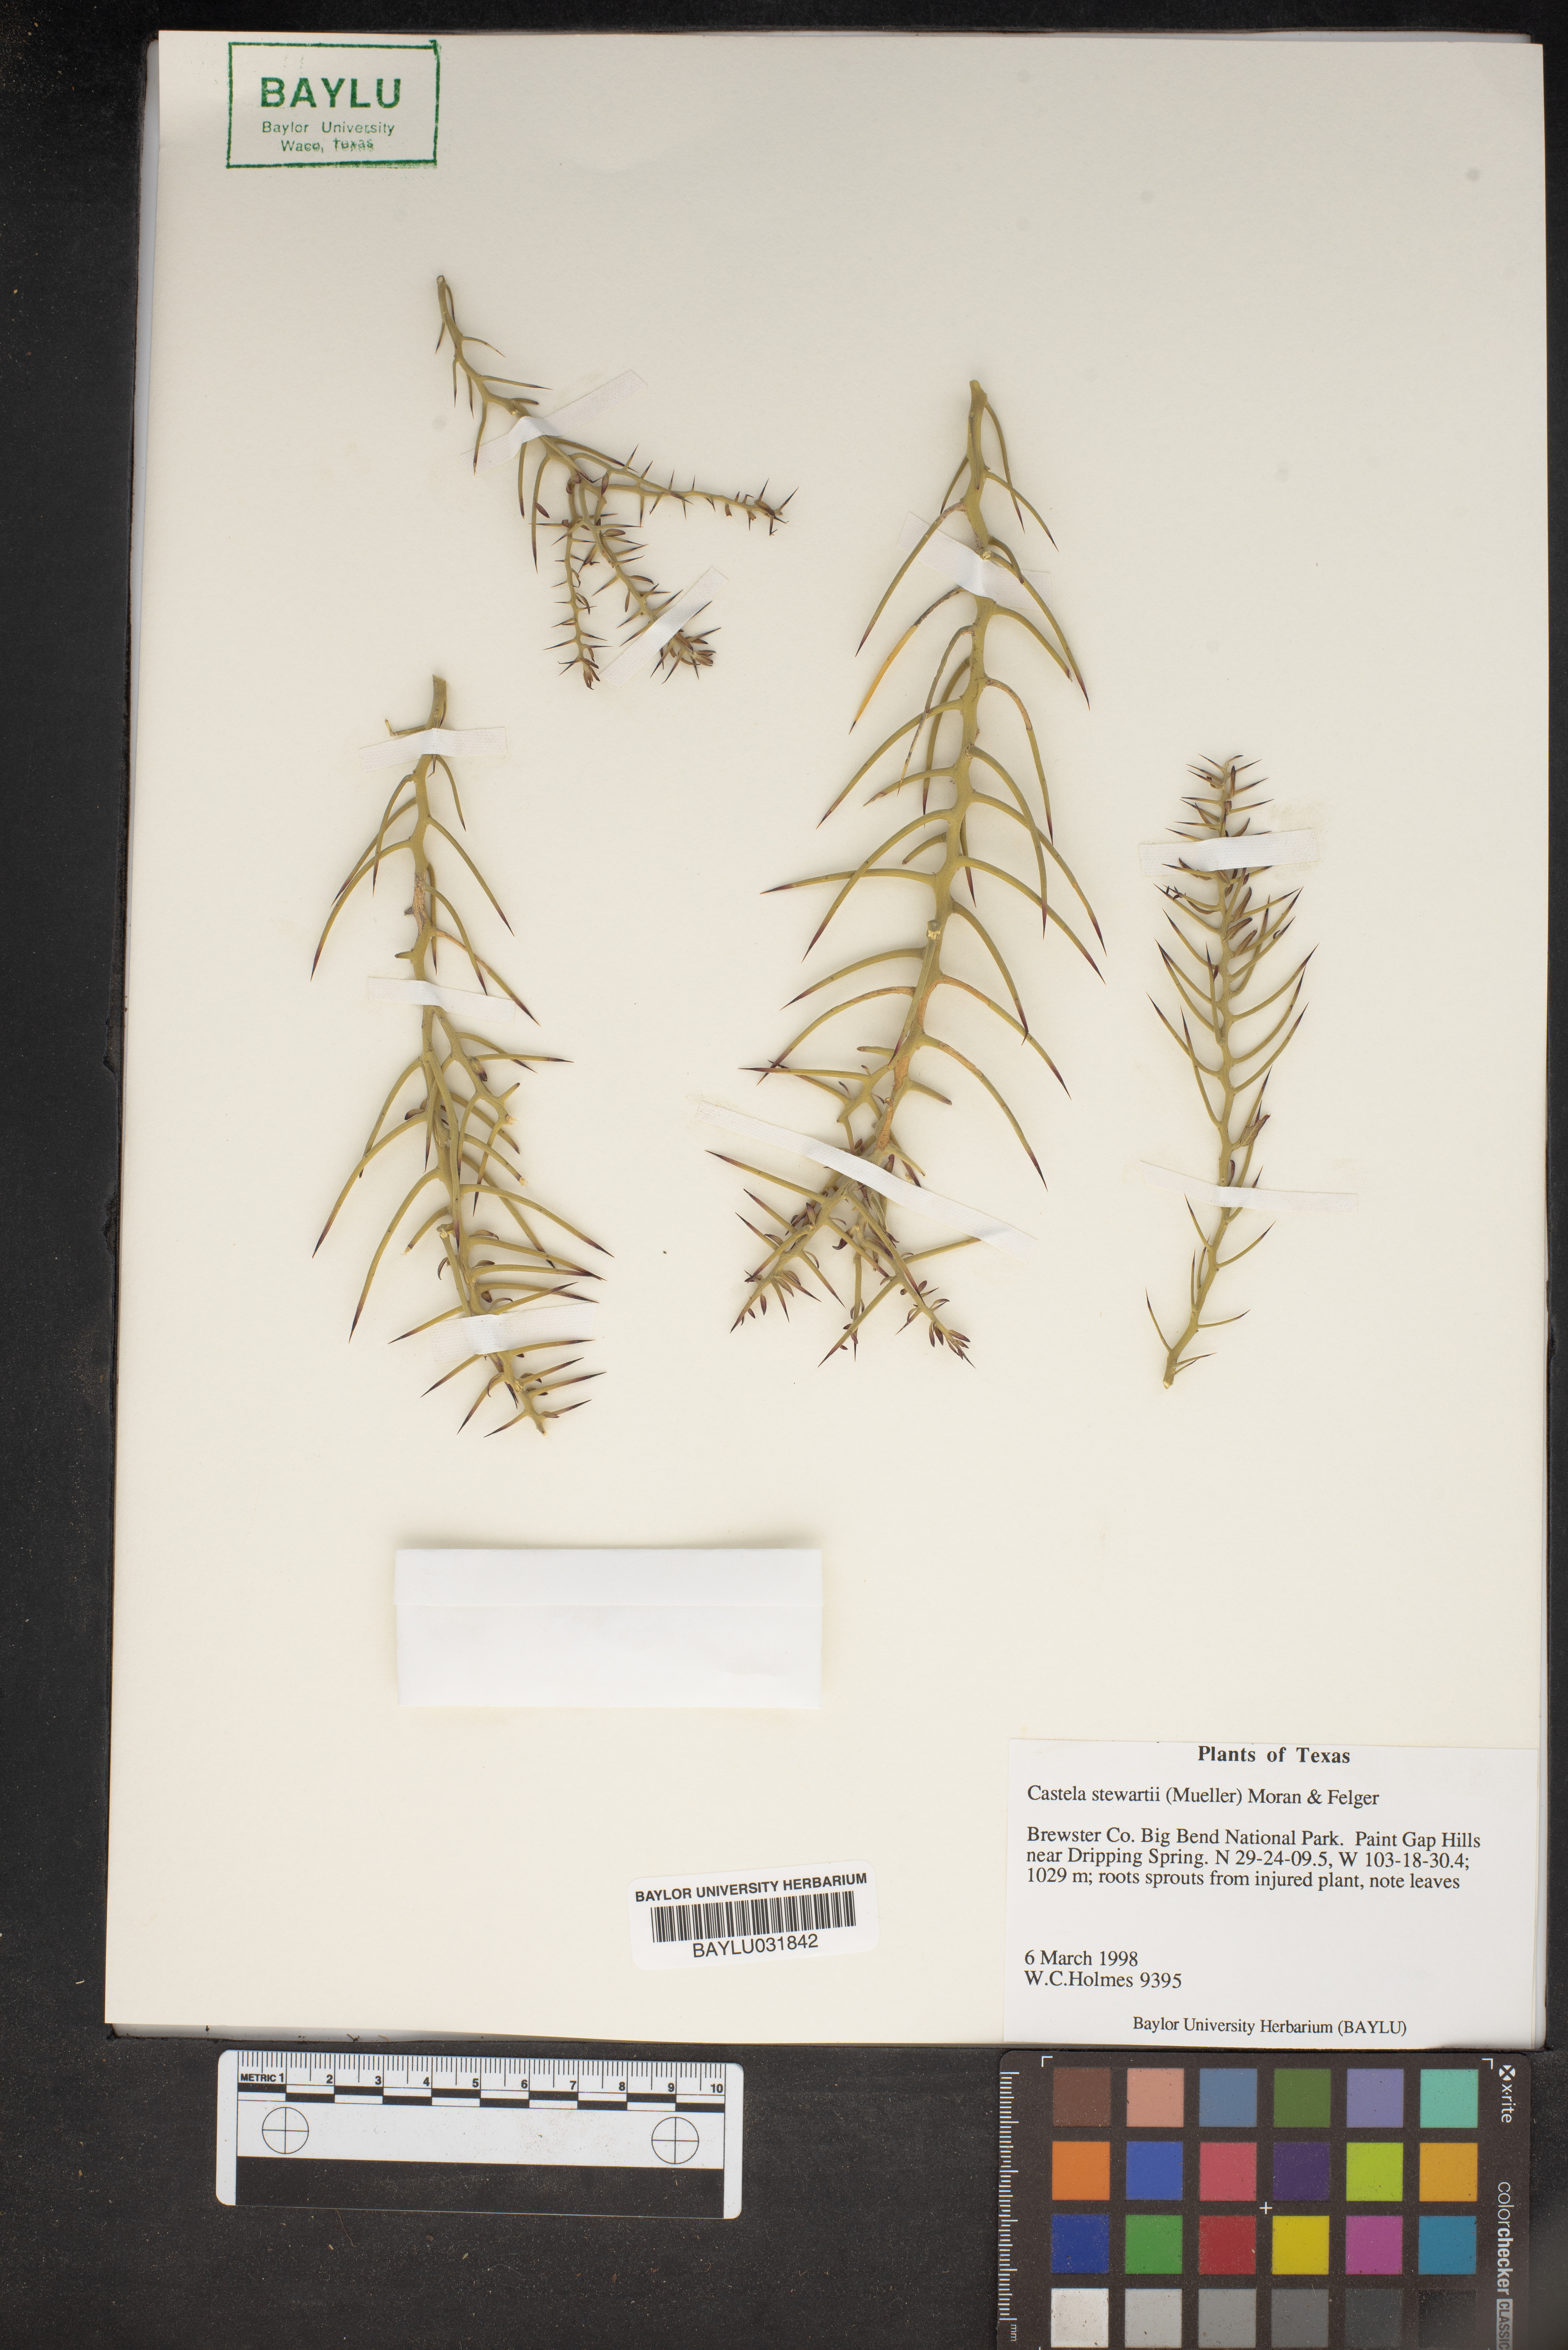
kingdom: Plantae
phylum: Tracheophyta
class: Magnoliopsida
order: Sapindales
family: Simaroubaceae
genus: Holacantha
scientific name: Holacantha stewartii
